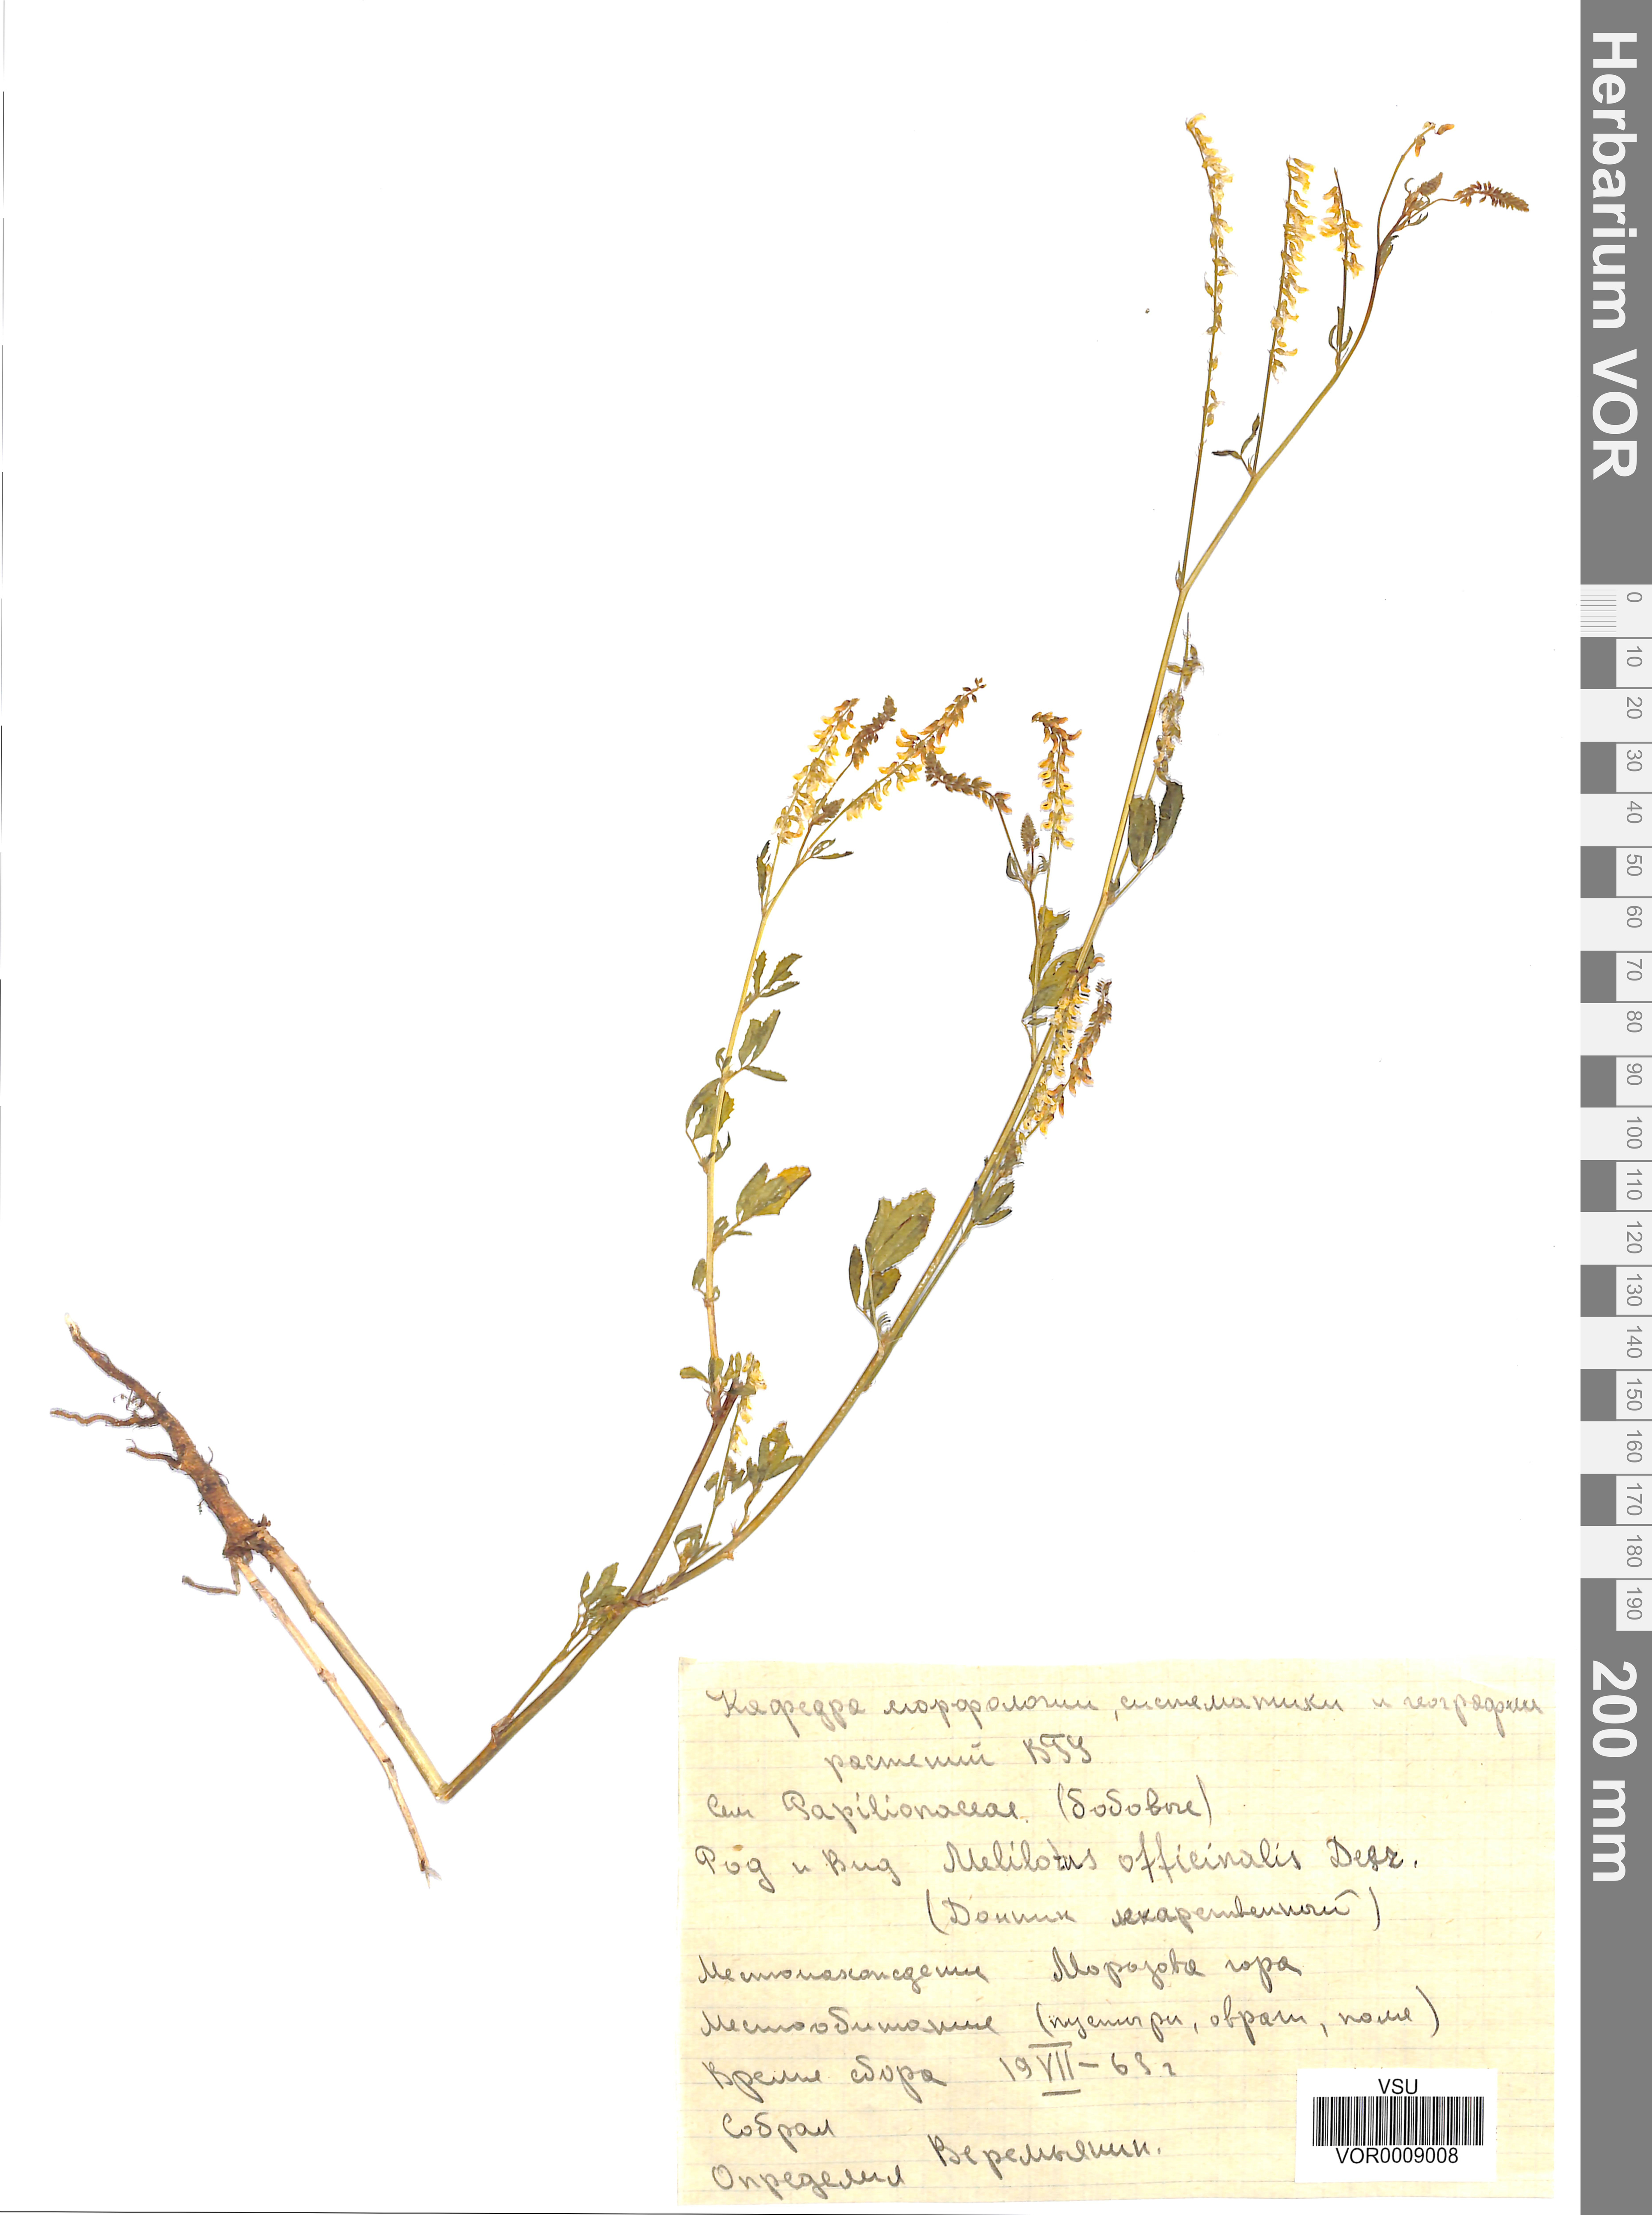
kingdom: Plantae
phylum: Tracheophyta
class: Magnoliopsida
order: Fabales
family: Fabaceae
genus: Melilotus
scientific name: Melilotus officinalis
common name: Sweetclover
